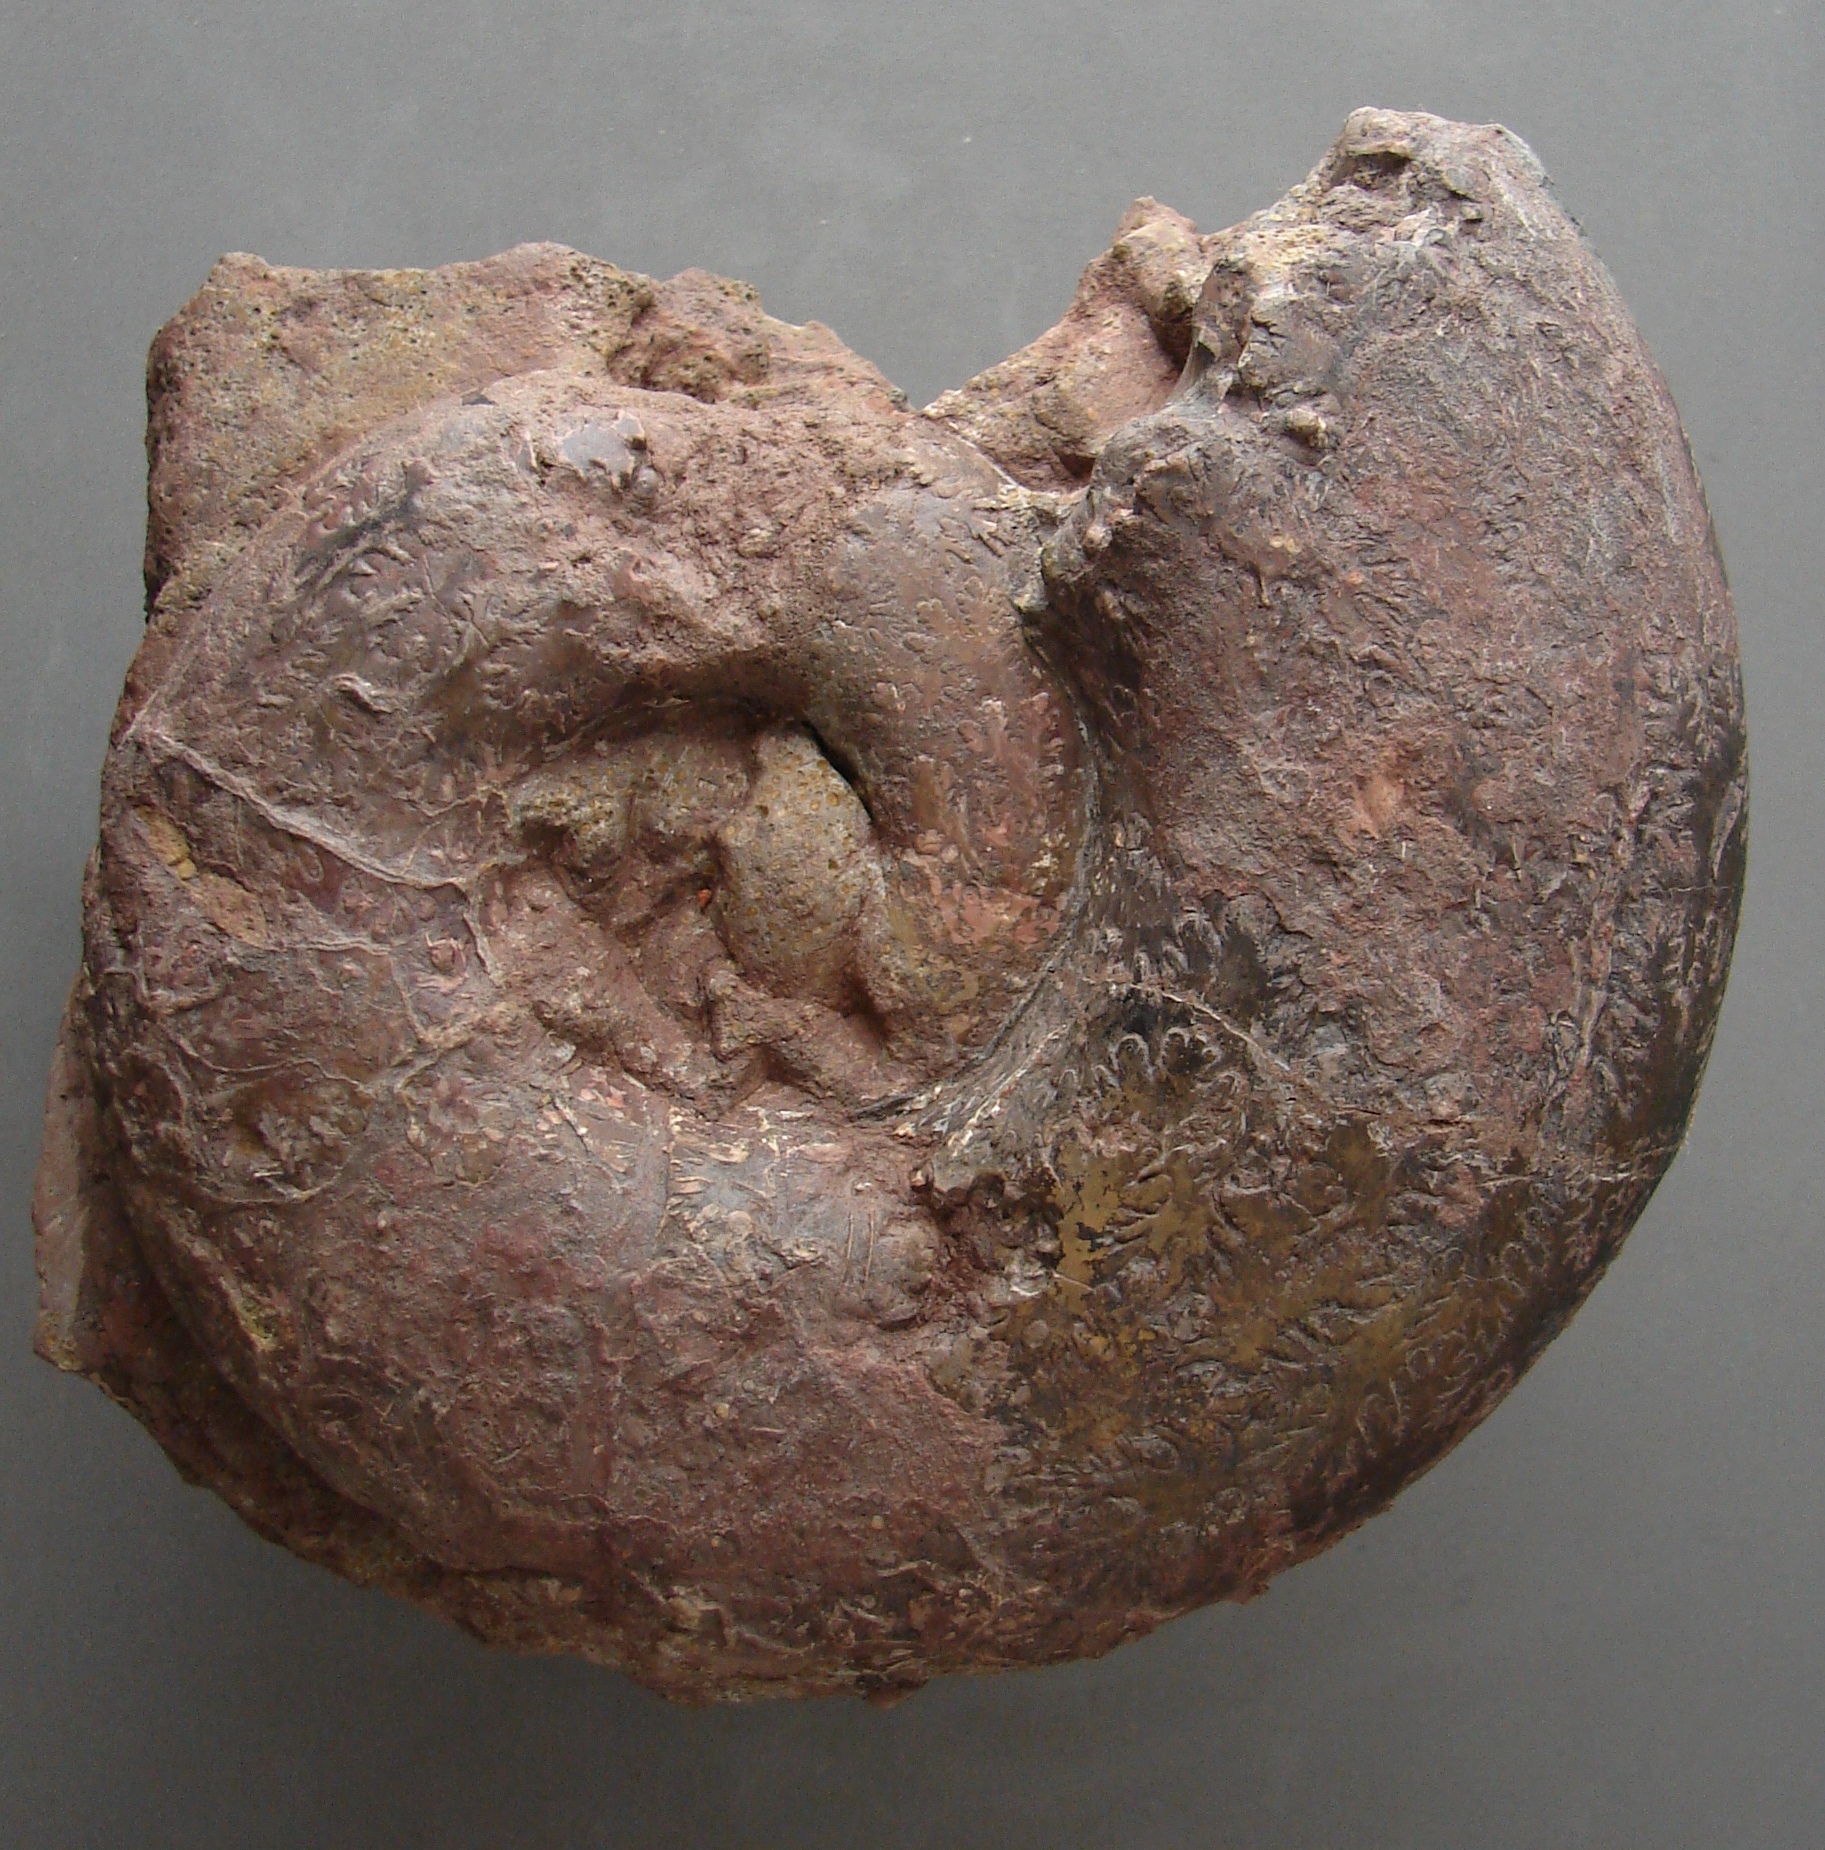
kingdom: Animalia
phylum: Mollusca
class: Cephalopoda
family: Lytoceratidae
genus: Perilytoceras
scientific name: Perilytoceras Ammonites jurensis
